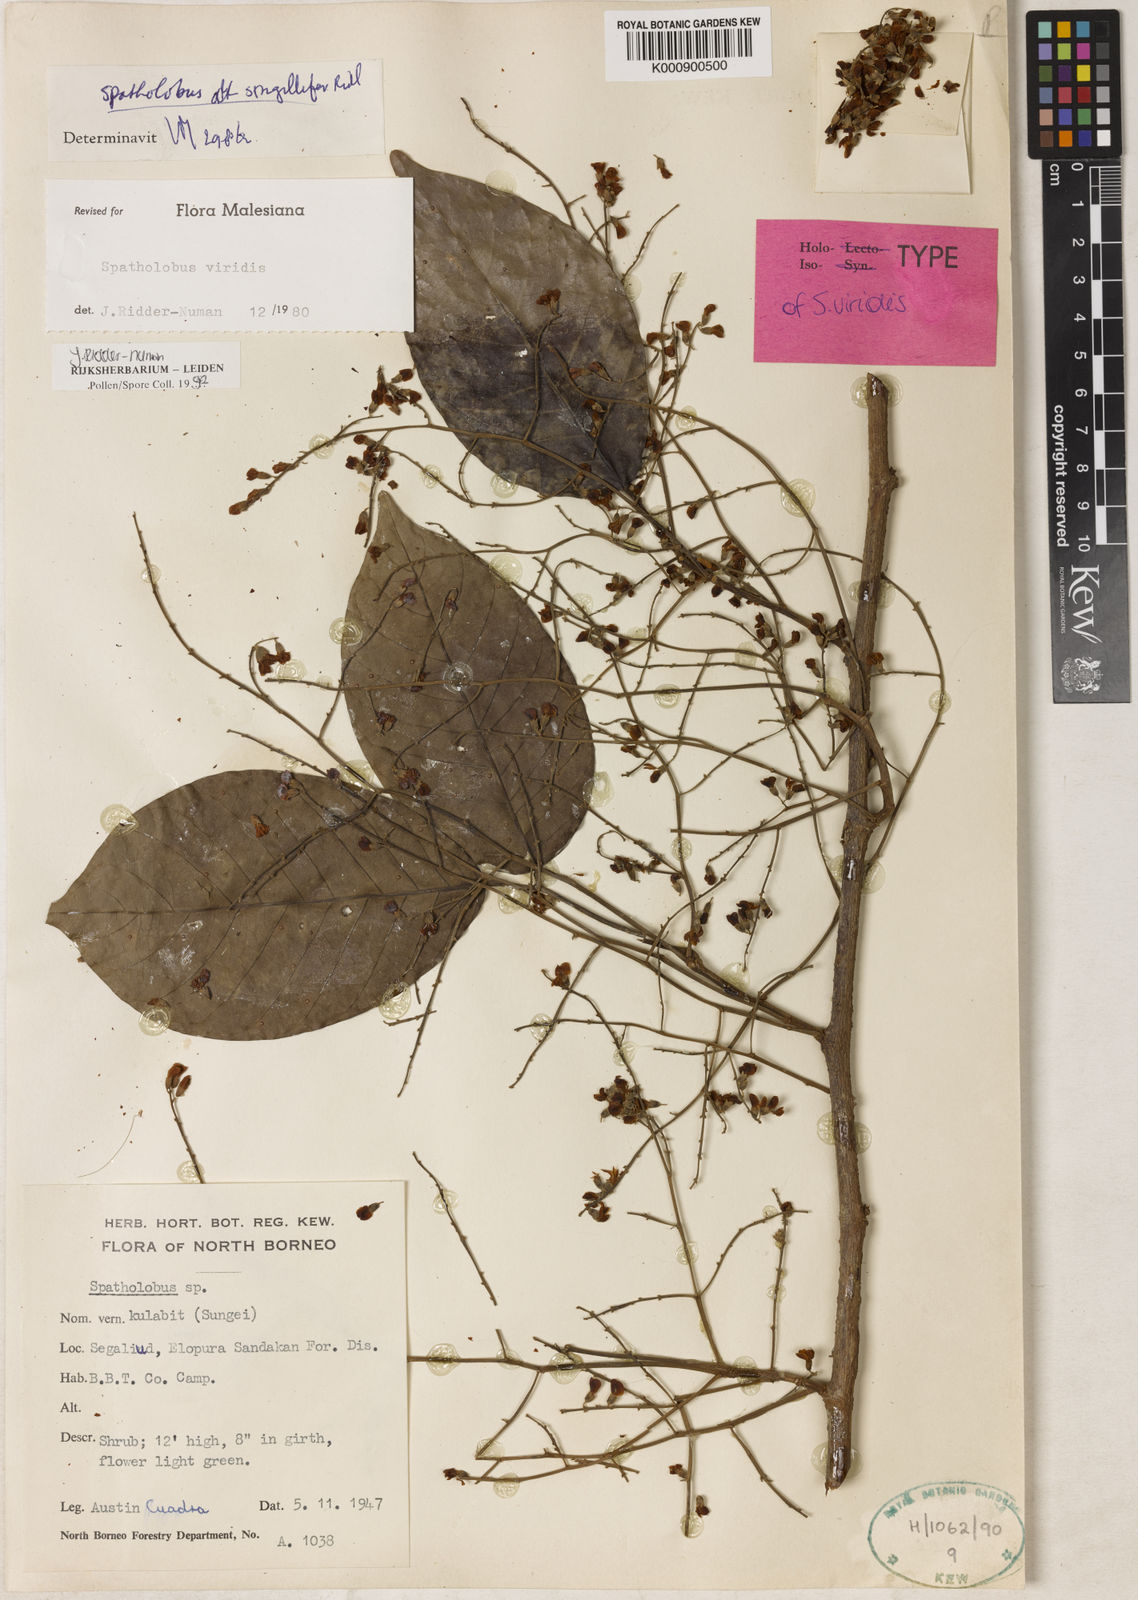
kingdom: Plantae
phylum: Tracheophyta
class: Magnoliopsida
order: Fabales
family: Fabaceae
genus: Spatholobus
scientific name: Spatholobus viridis
